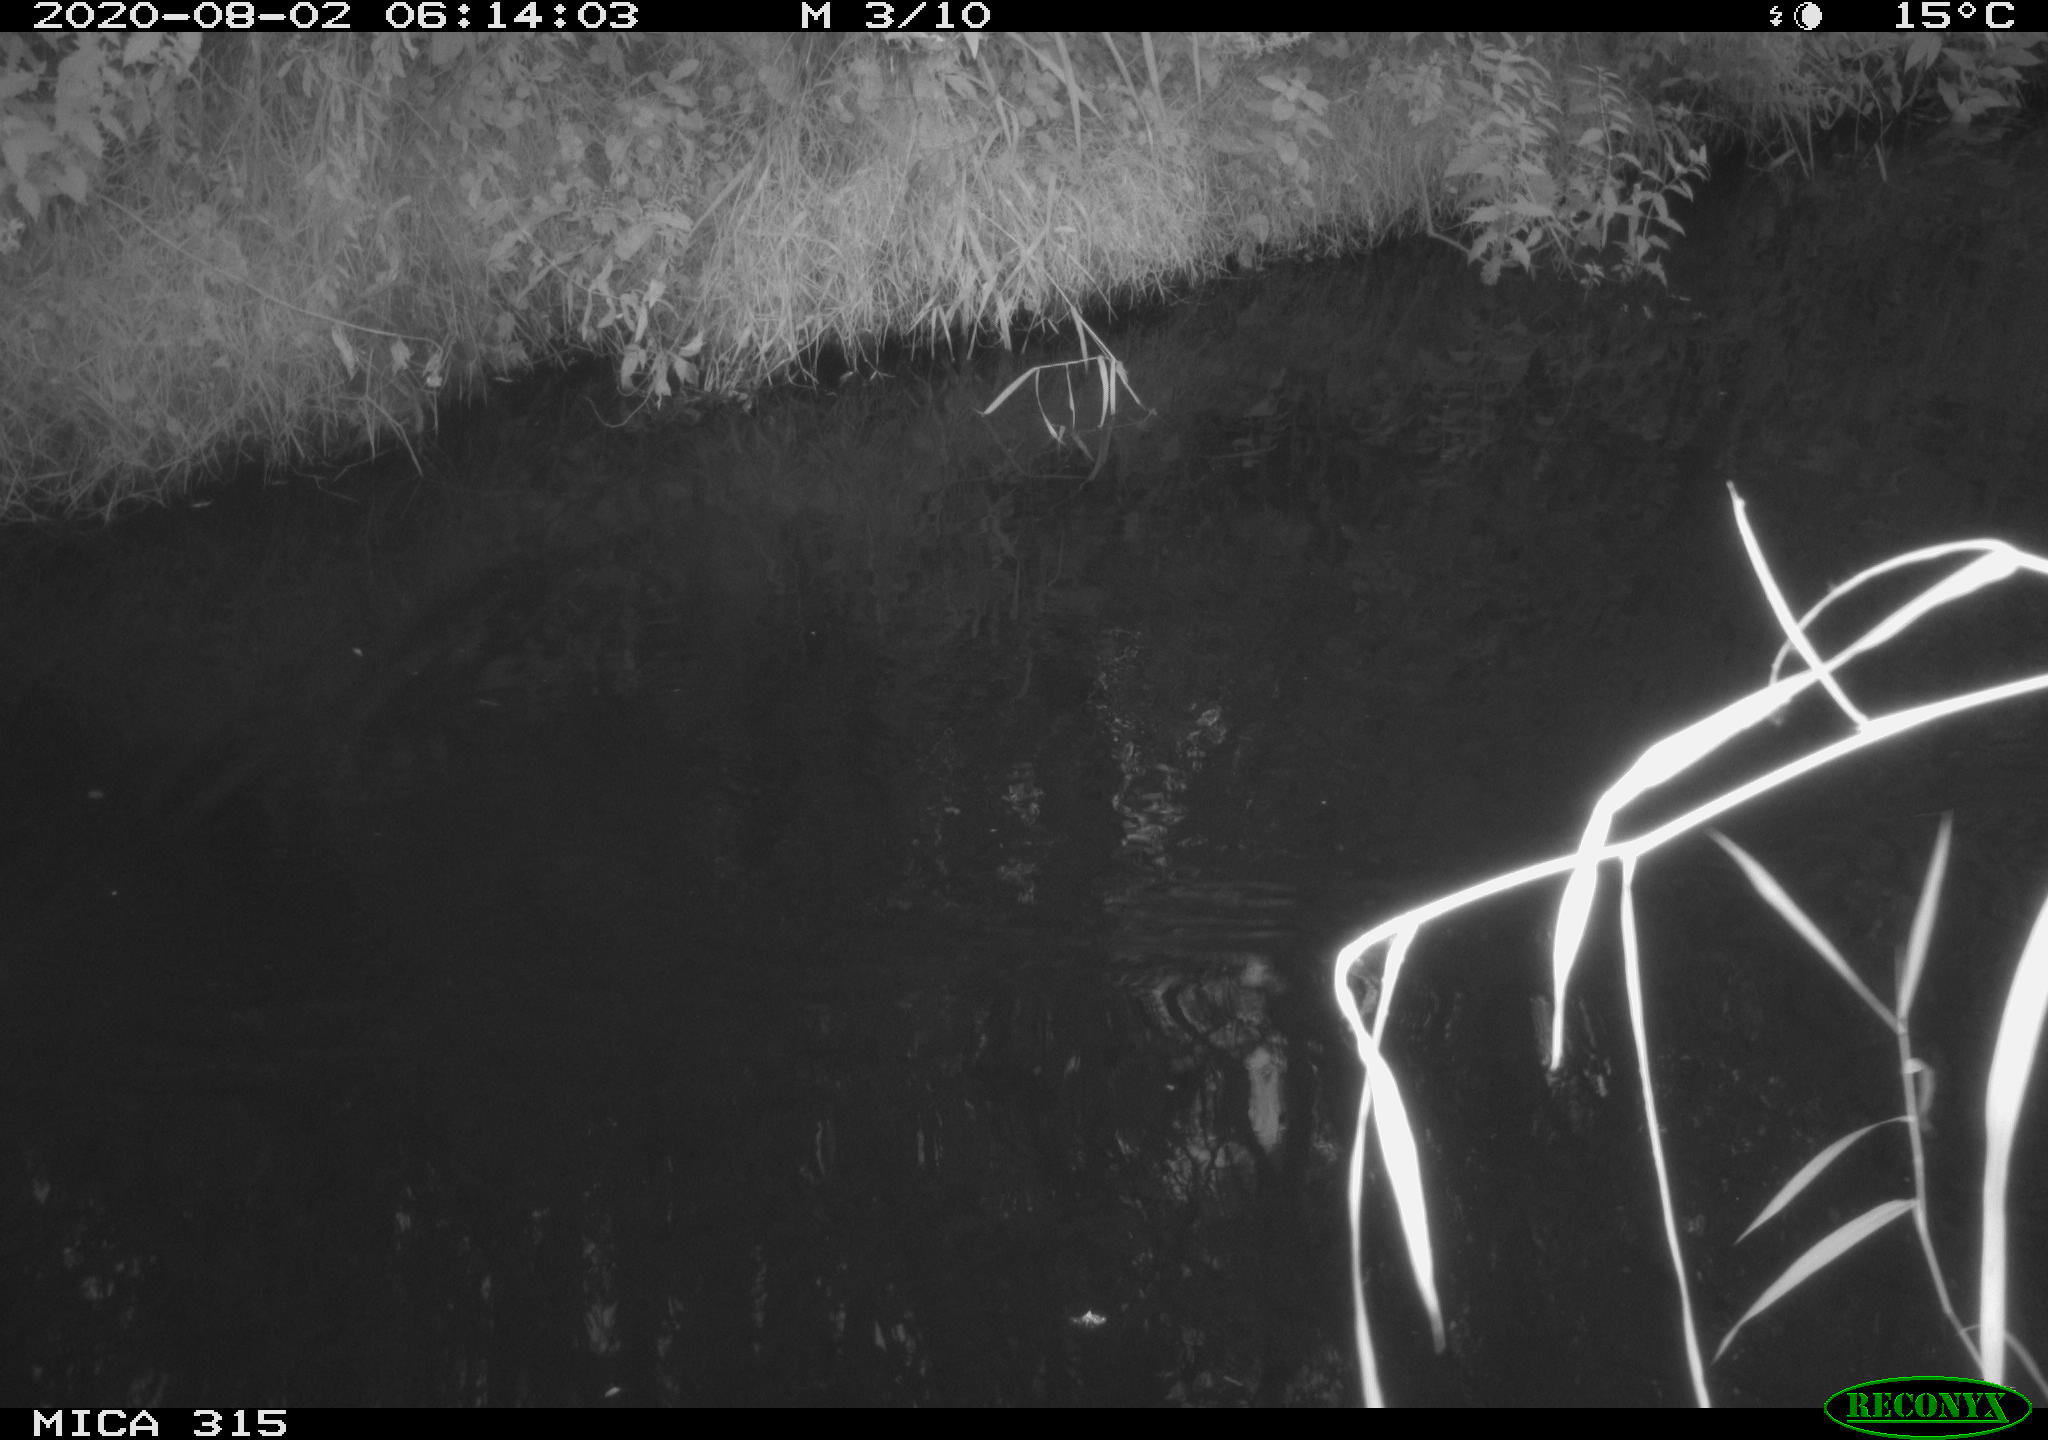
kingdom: Animalia
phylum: Chordata
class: Aves
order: Anseriformes
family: Anatidae
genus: Anas
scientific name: Anas platyrhynchos
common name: Mallard
